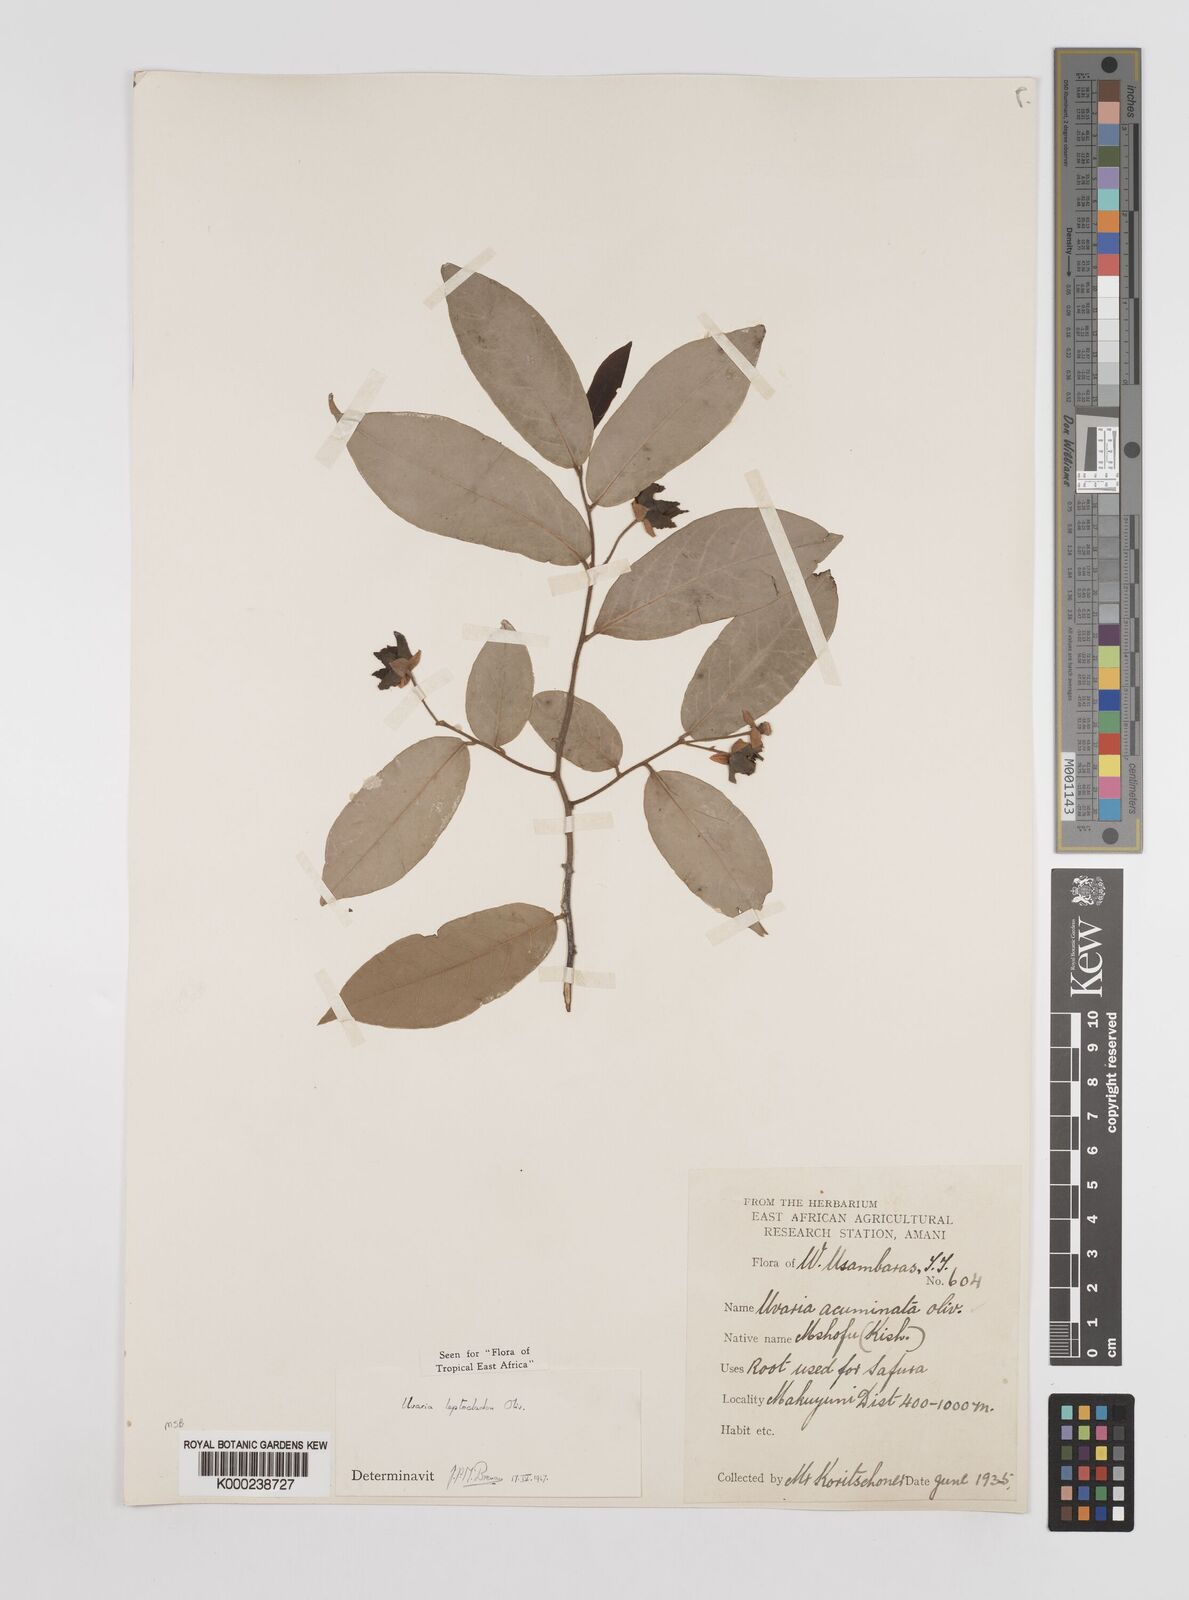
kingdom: Plantae
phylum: Tracheophyta
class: Magnoliopsida
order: Magnoliales
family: Annonaceae
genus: Uvaria
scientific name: Uvaria leptocladon
